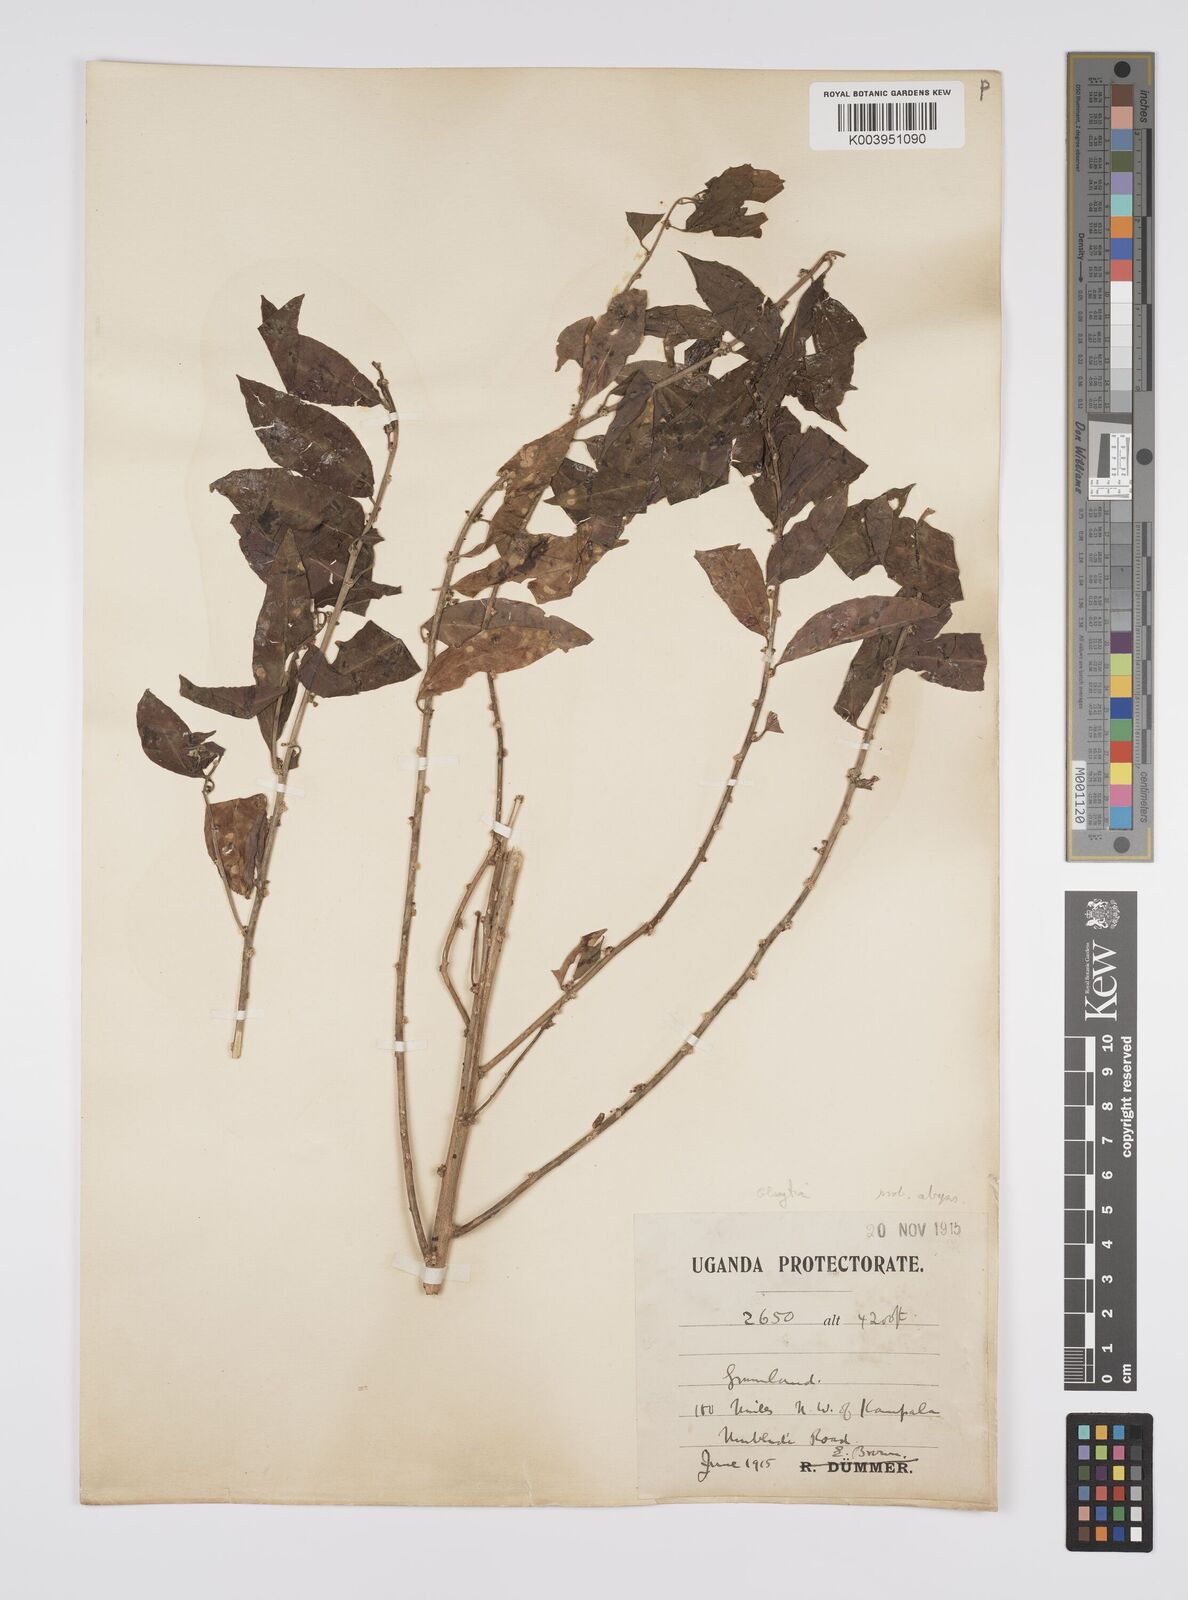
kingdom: Plantae
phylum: Tracheophyta
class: Magnoliopsida
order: Malpighiales
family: Peraceae
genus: Clutia
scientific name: Clutia
